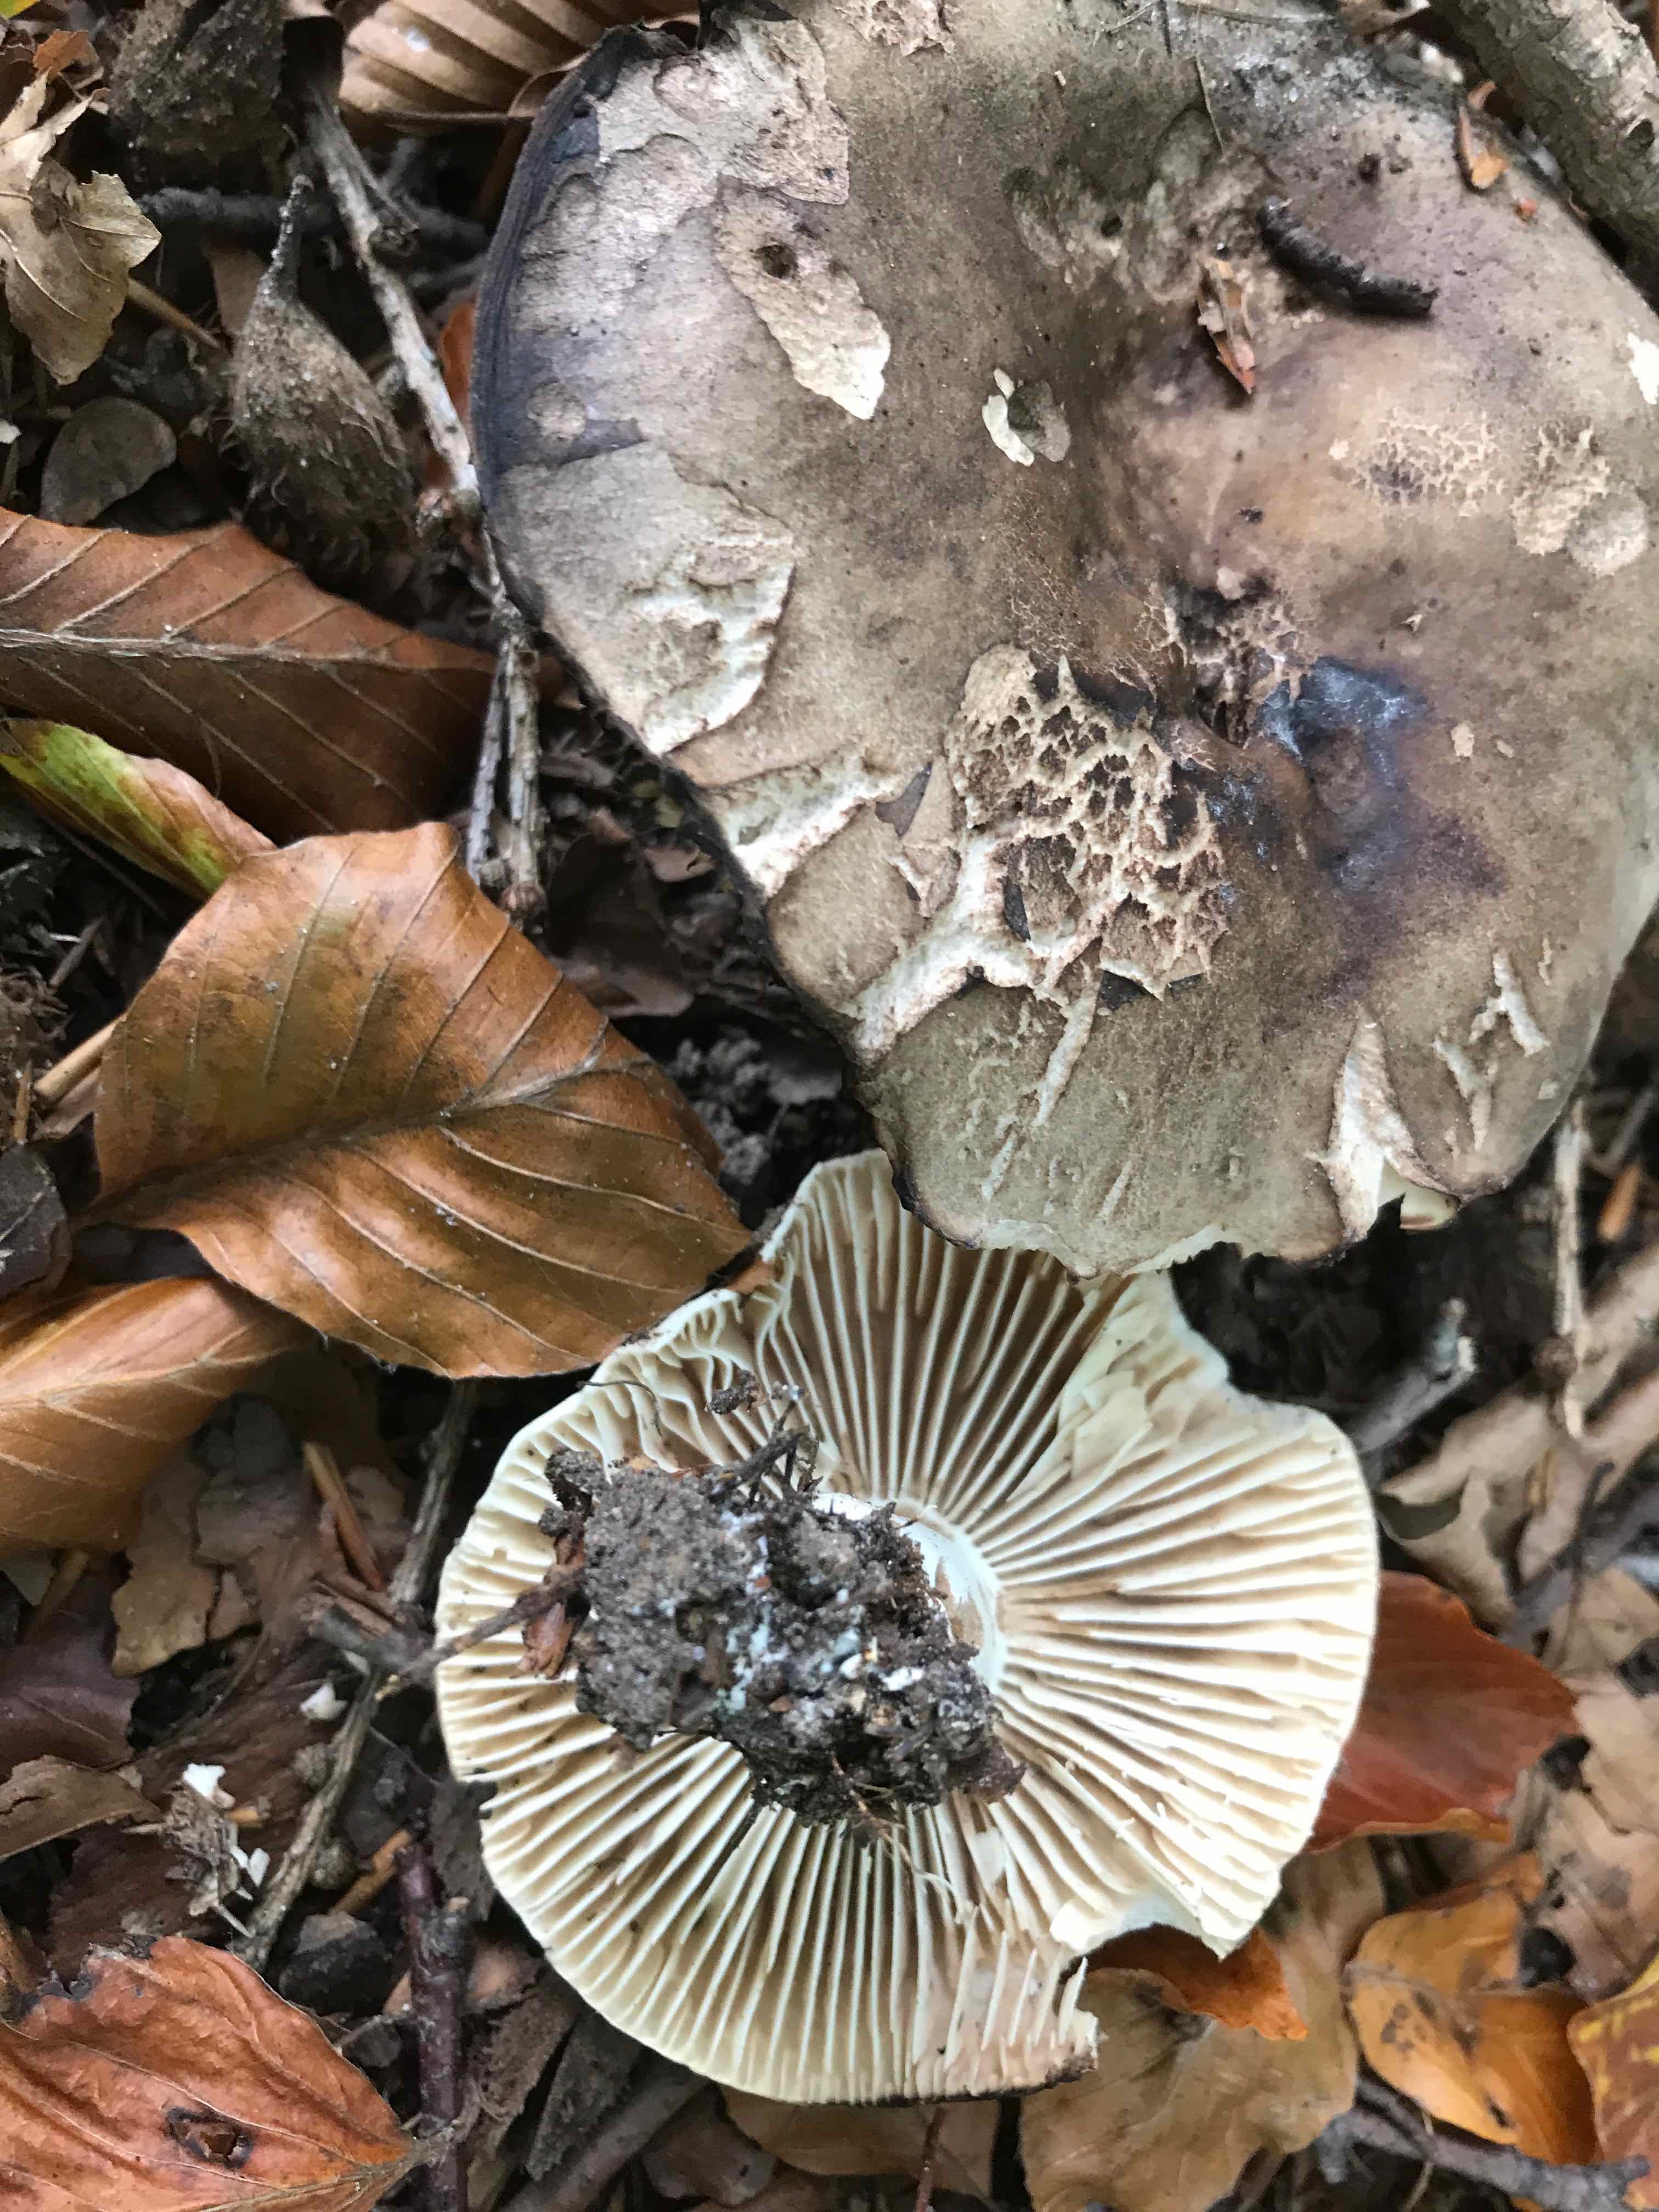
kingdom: Fungi
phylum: Basidiomycota
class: Agaricomycetes
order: Russulales
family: Russulaceae
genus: Russula
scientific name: Russula adusta
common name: sværtende skørhat
